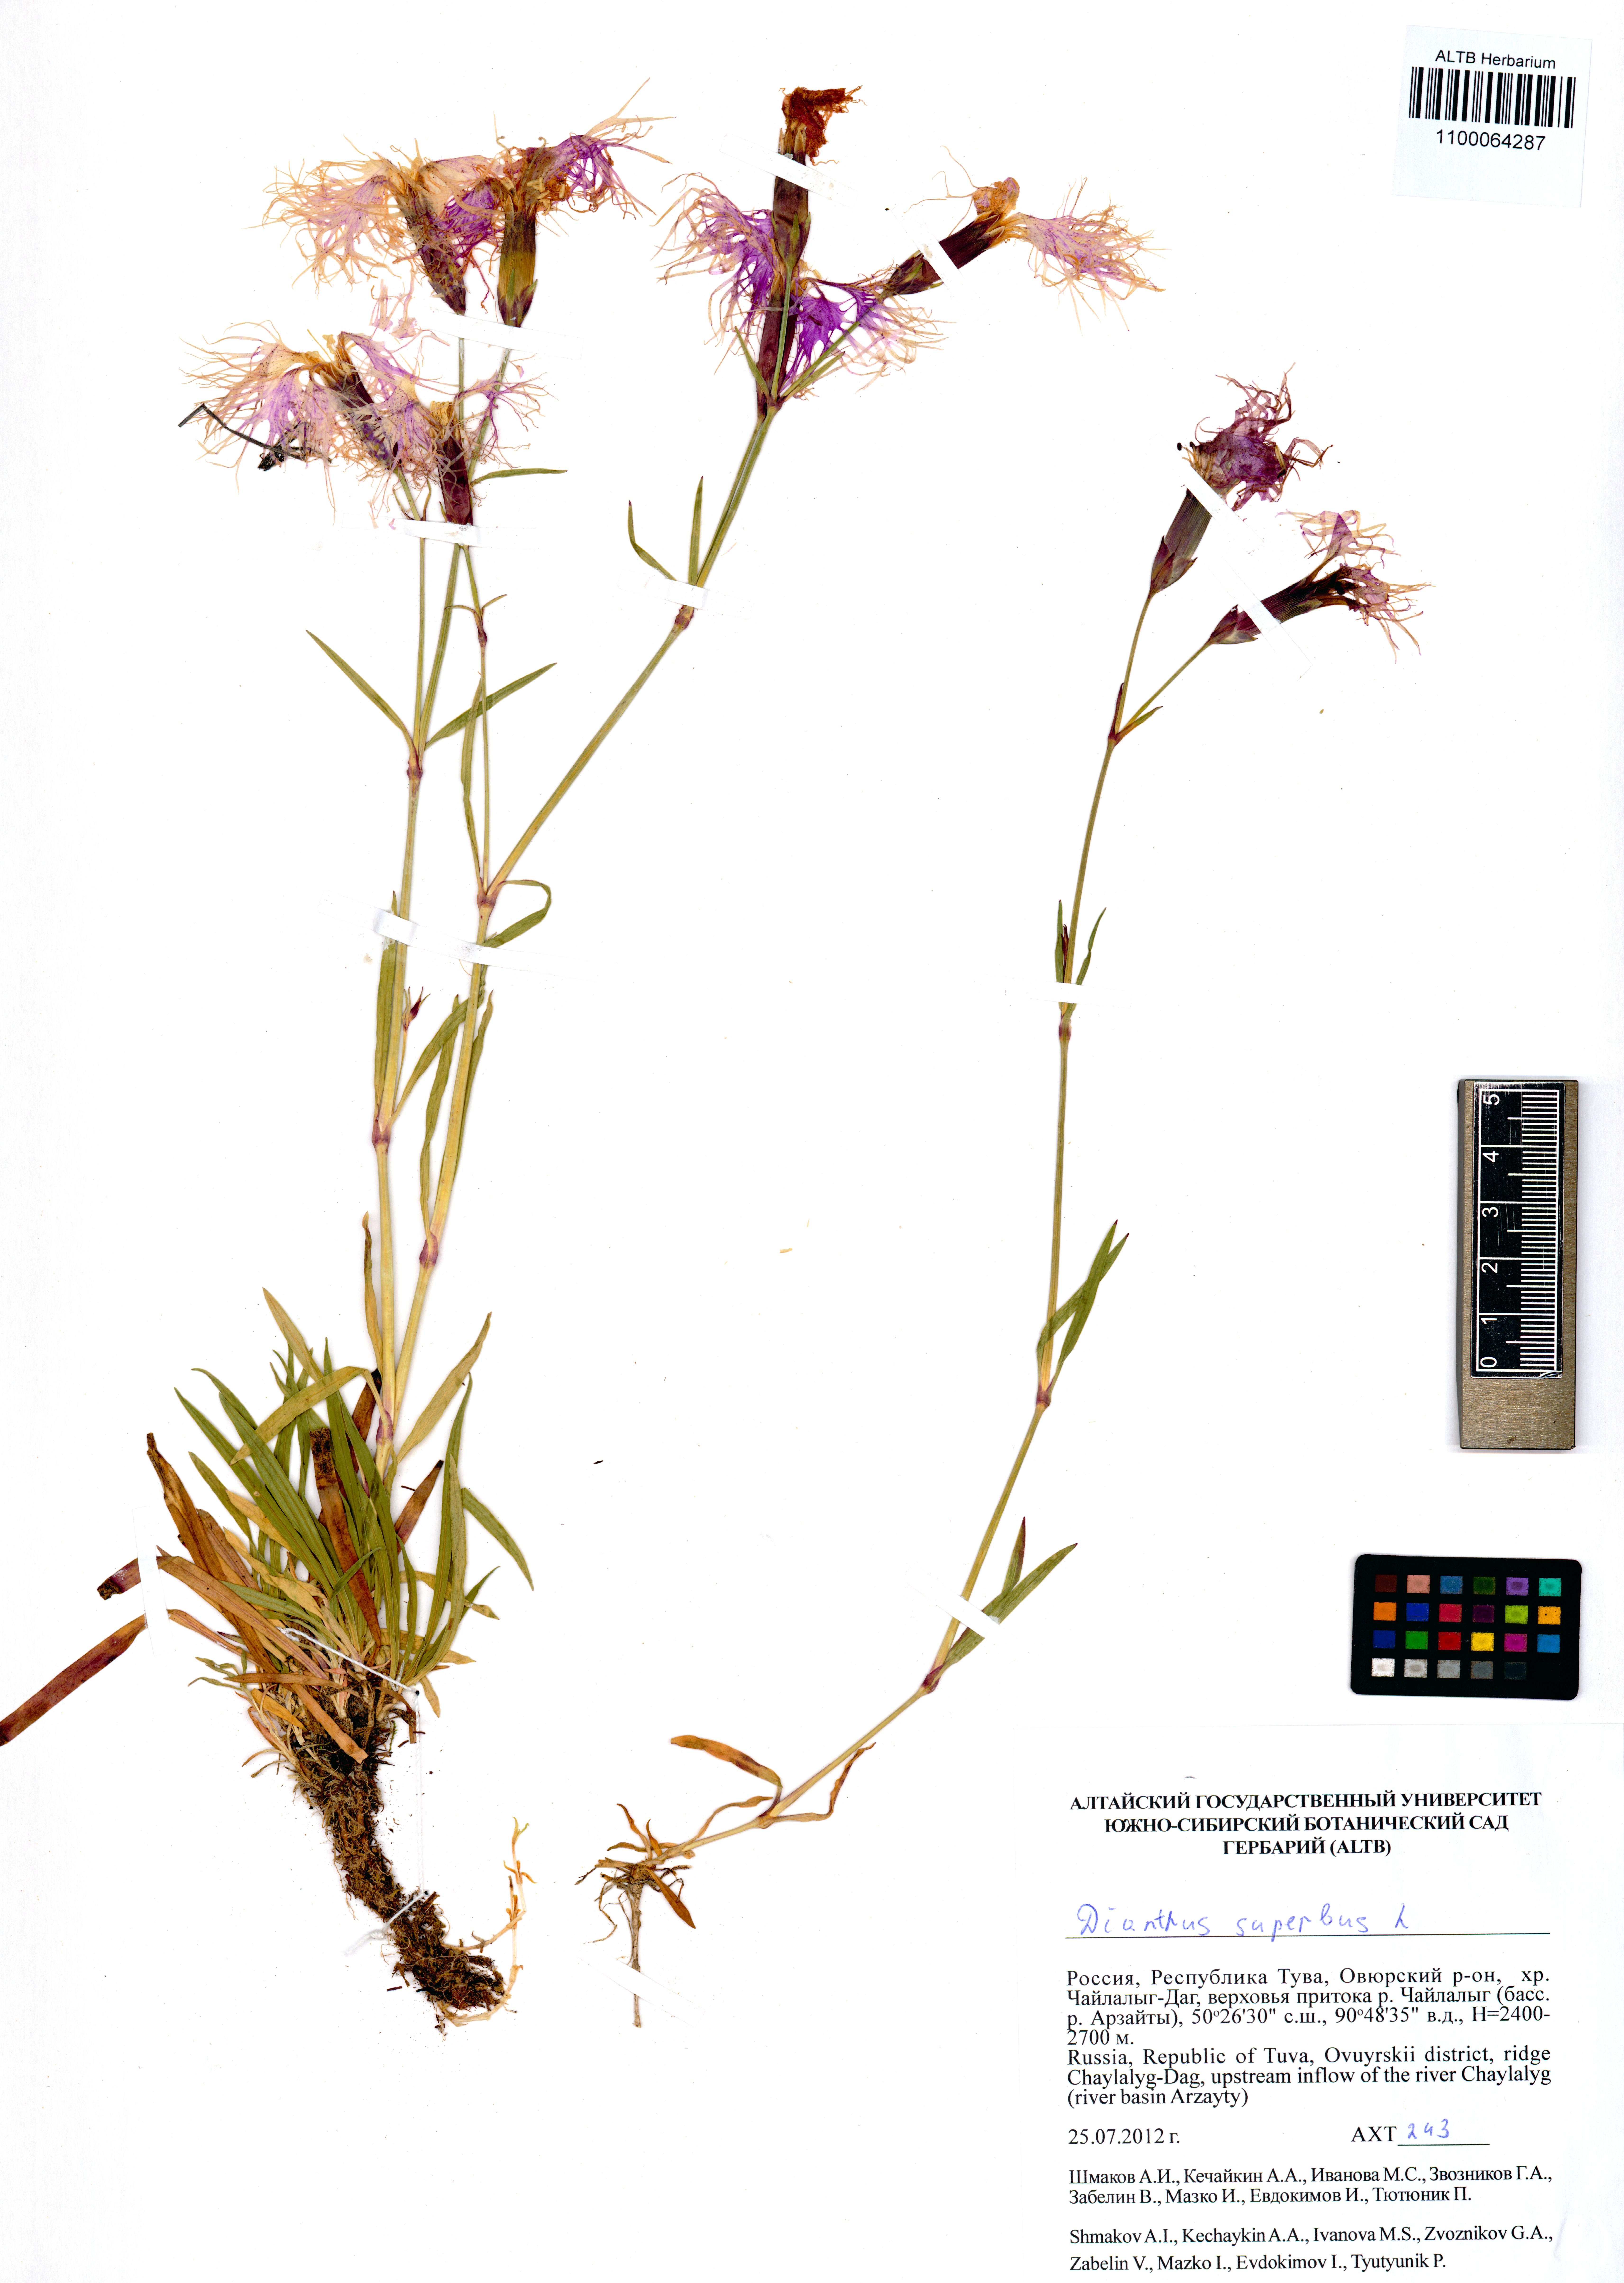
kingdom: Plantae
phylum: Tracheophyta
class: Magnoliopsida
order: Caryophyllales
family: Caryophyllaceae
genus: Dianthus
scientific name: Dianthus superbus
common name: Fringed pink
